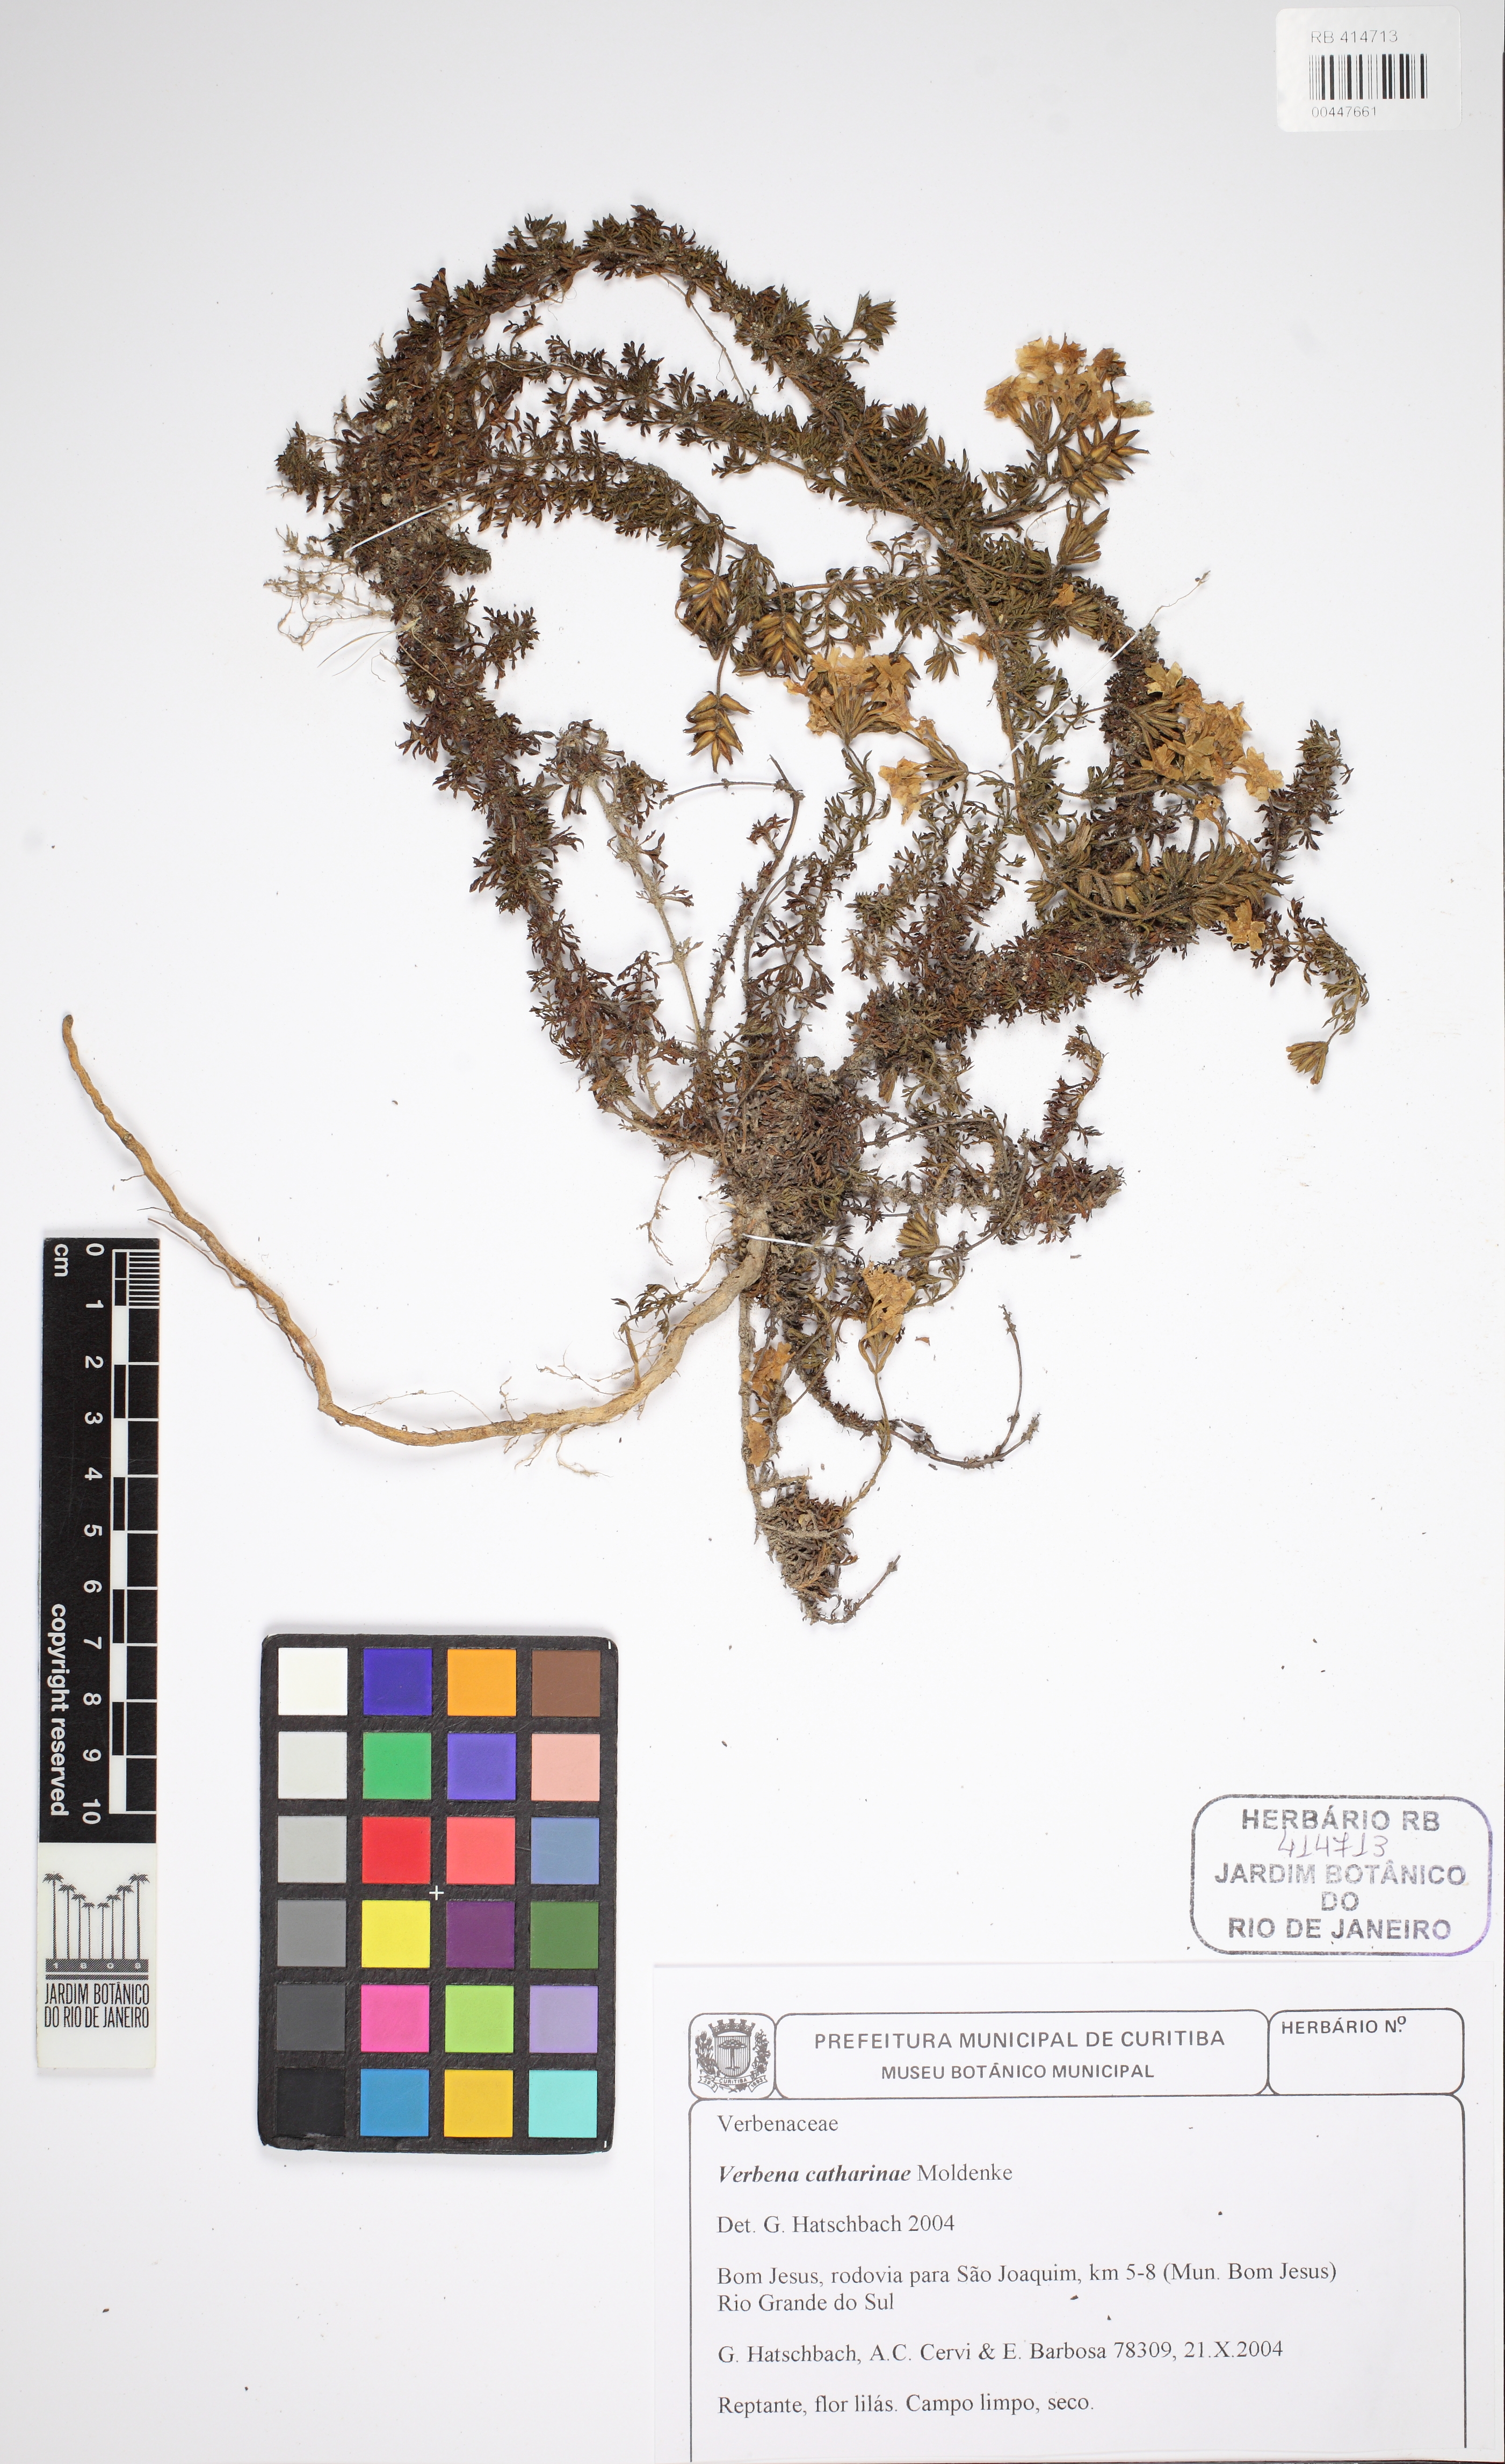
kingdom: Plantae
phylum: Tracheophyta
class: Magnoliopsida
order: Lamiales
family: Verbenaceae
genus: Verbena
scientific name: Verbena catharinae
